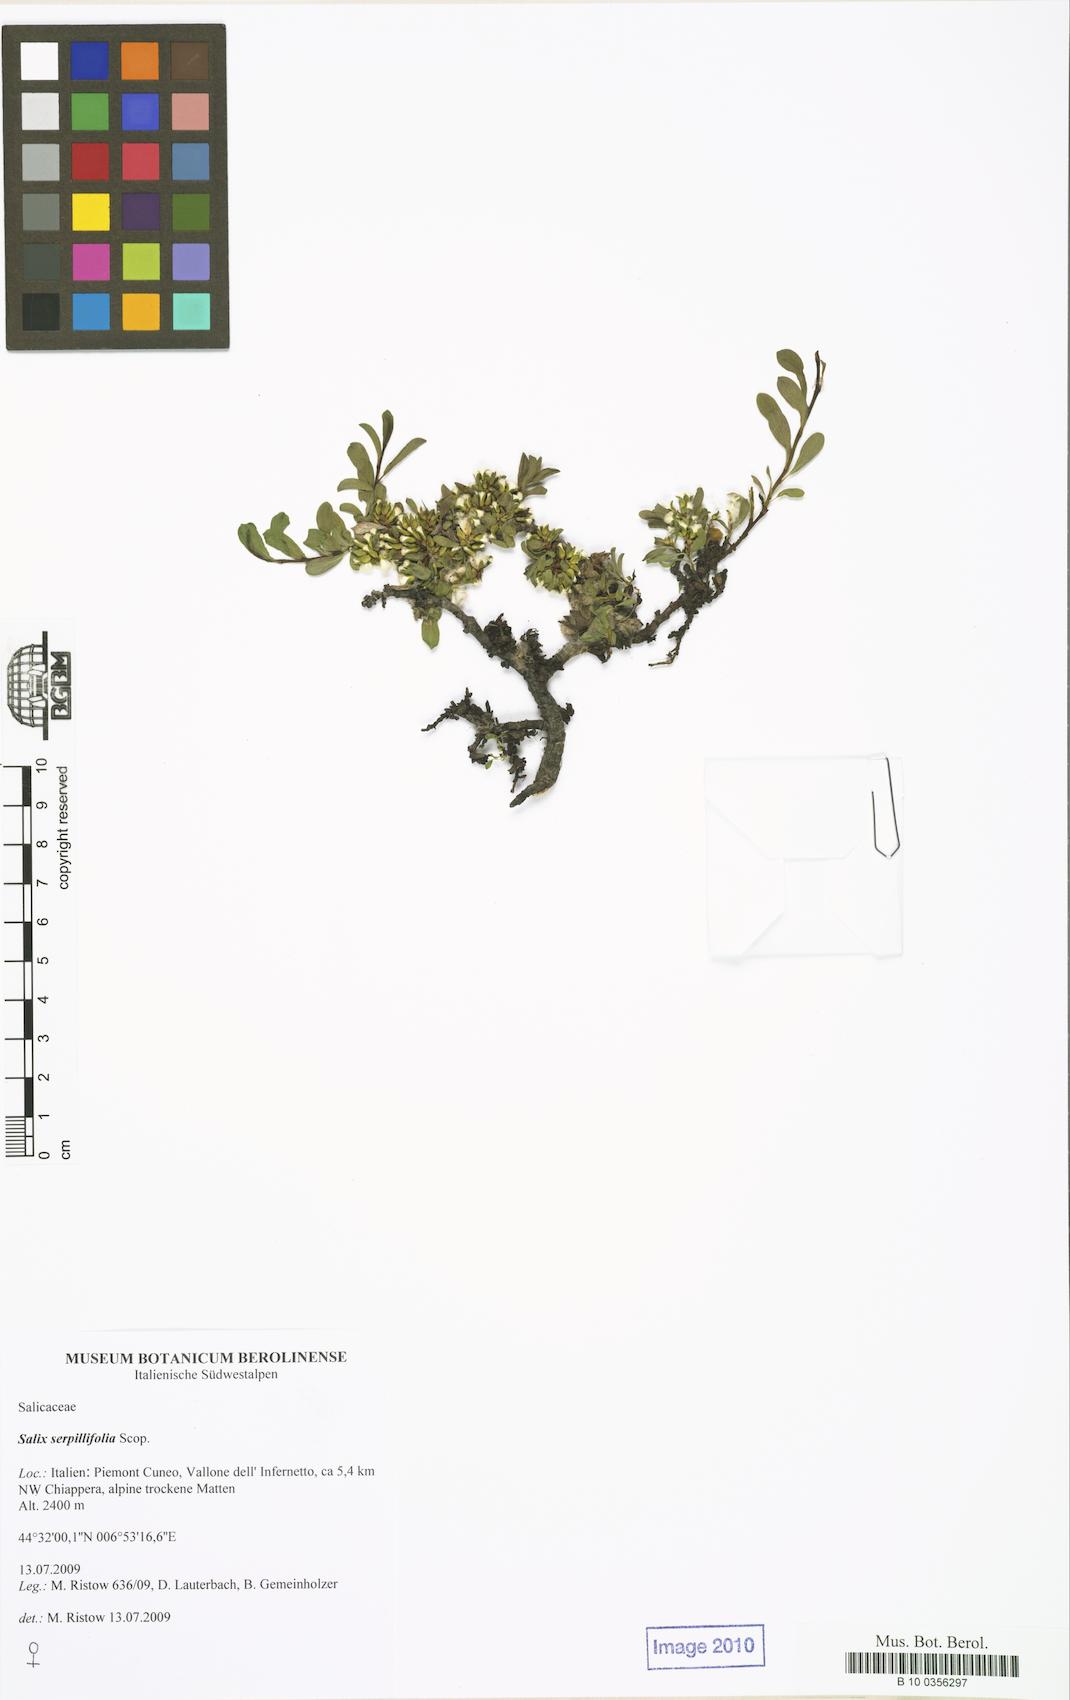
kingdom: Plantae
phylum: Tracheophyta
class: Magnoliopsida
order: Malpighiales
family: Salicaceae
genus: Salix
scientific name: Salix serpillifolia
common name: Thyme-leaf willow
